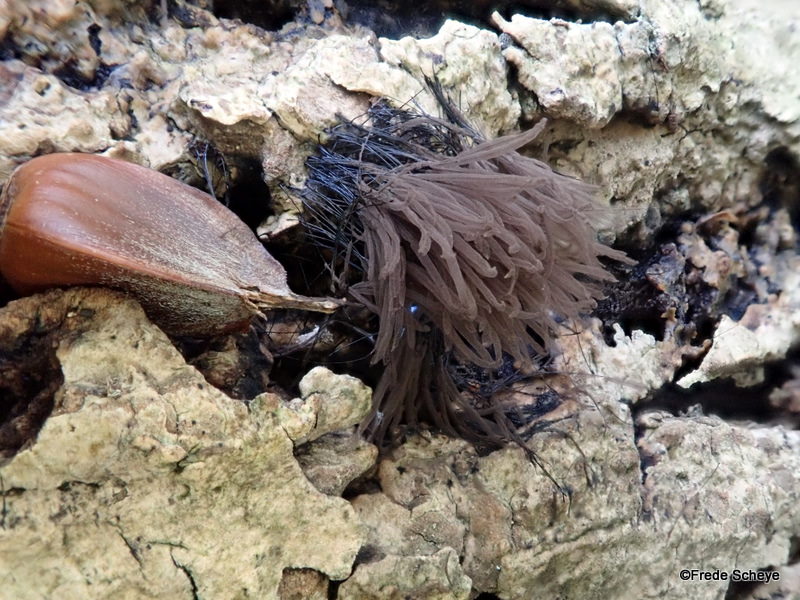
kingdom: Protozoa
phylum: Mycetozoa
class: Myxomycetes
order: Stemonitidales
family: Stemonitidaceae
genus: Stemonitis
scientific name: Stemonitis axifera
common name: rødbrun støvkølle
